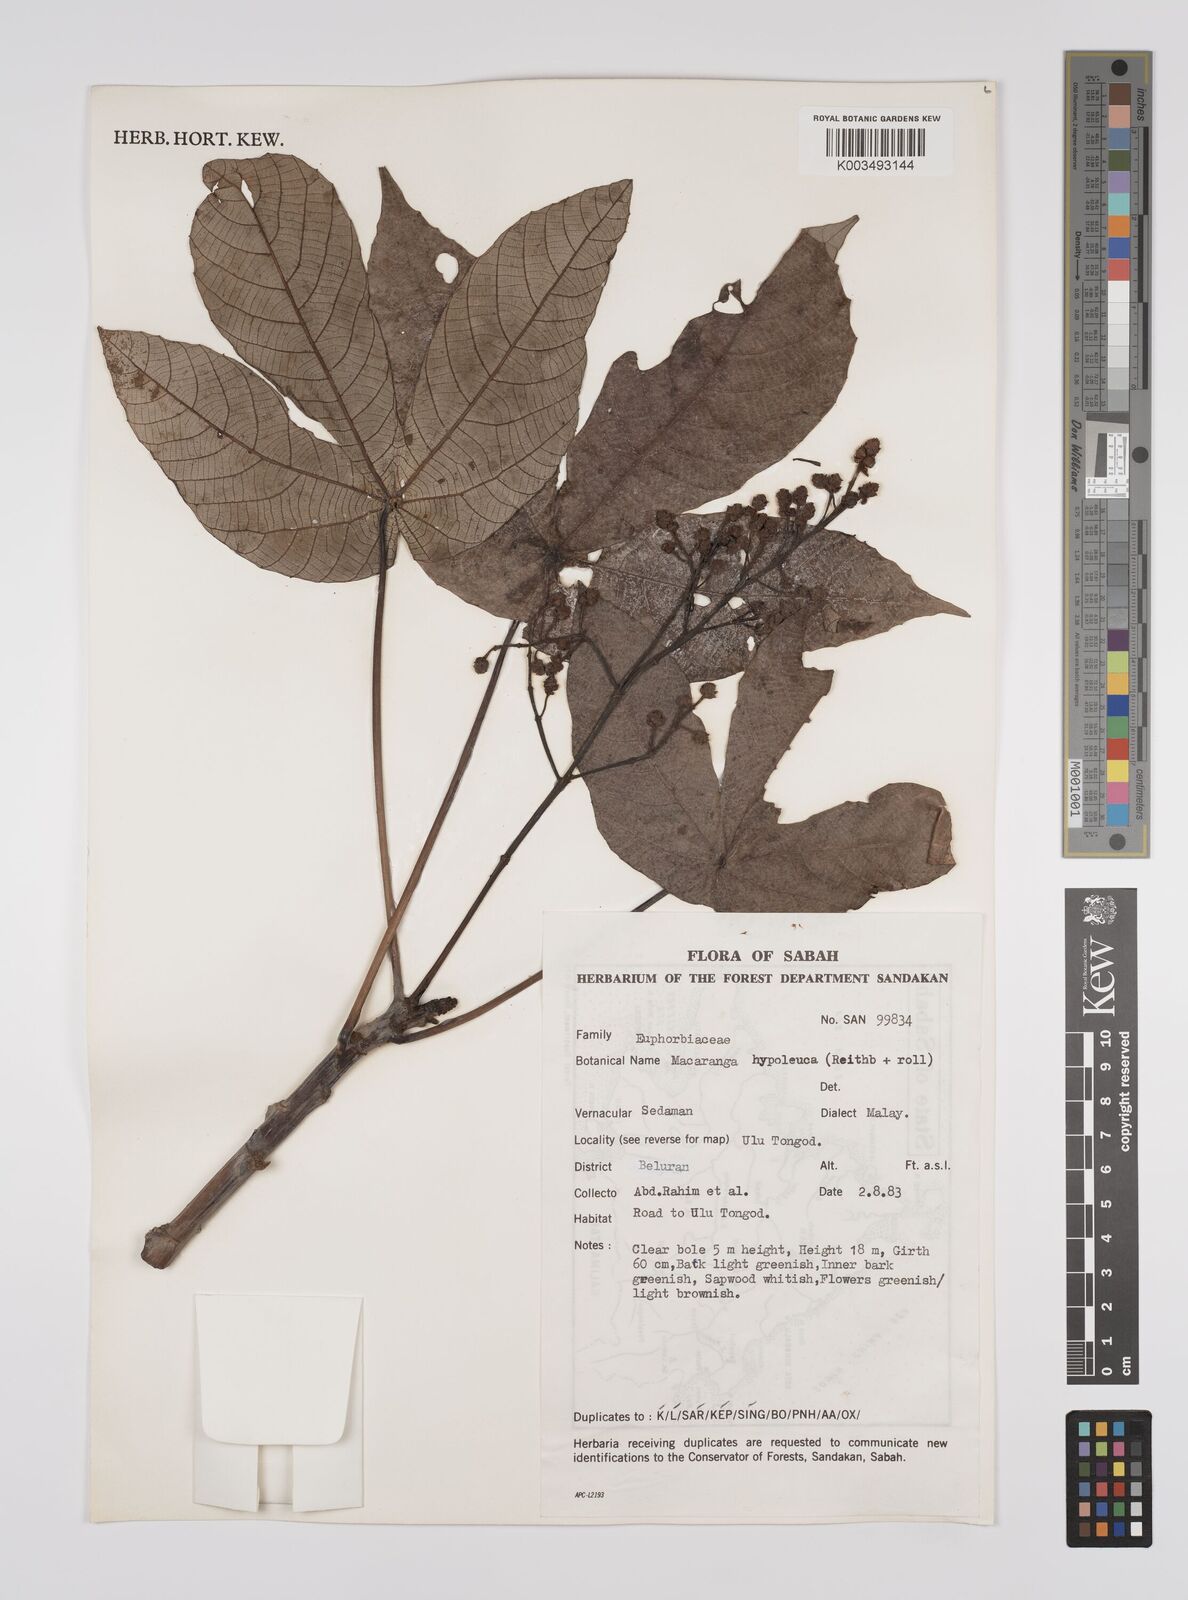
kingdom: Plantae
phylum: Tracheophyta
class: Magnoliopsida
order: Malpighiales
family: Euphorbiaceae
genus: Macaranga
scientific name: Macaranga hypoleuca
